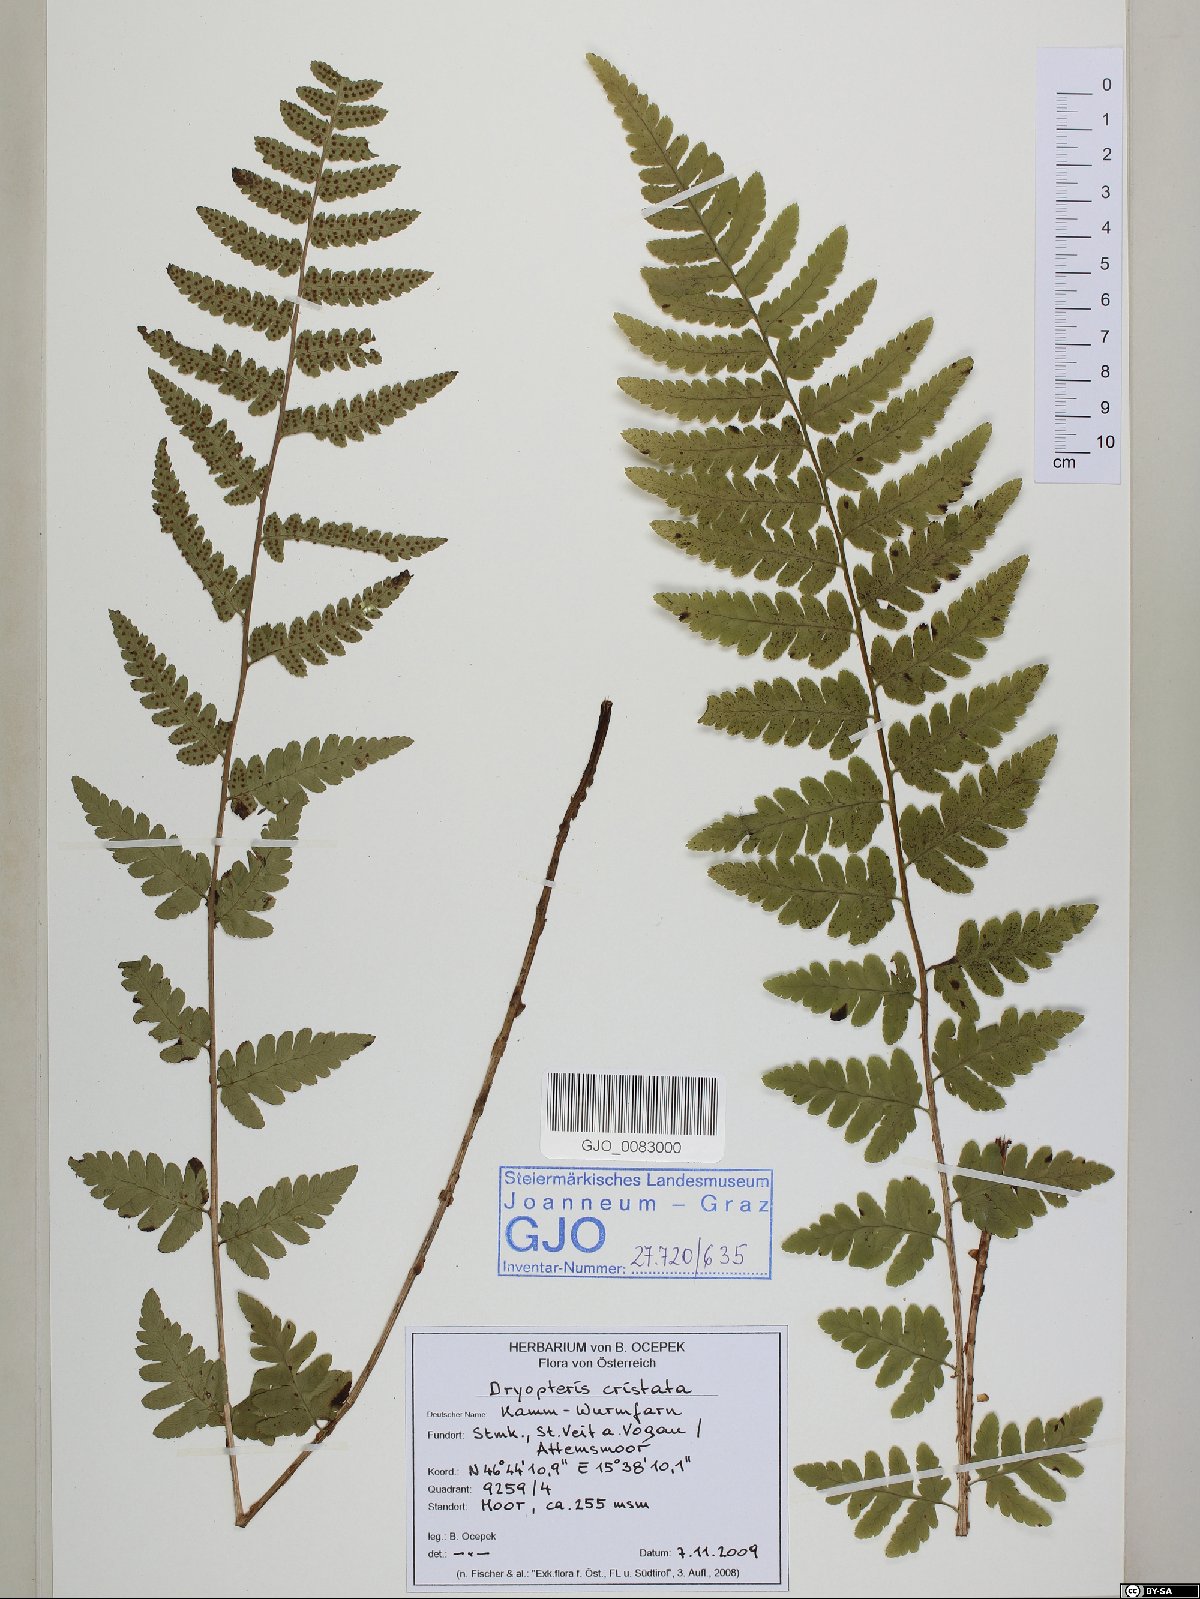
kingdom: Plantae
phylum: Tracheophyta
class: Polypodiopsida
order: Polypodiales
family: Dryopteridaceae
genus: Dryopteris
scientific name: Dryopteris cristata
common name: Crested wood fern
